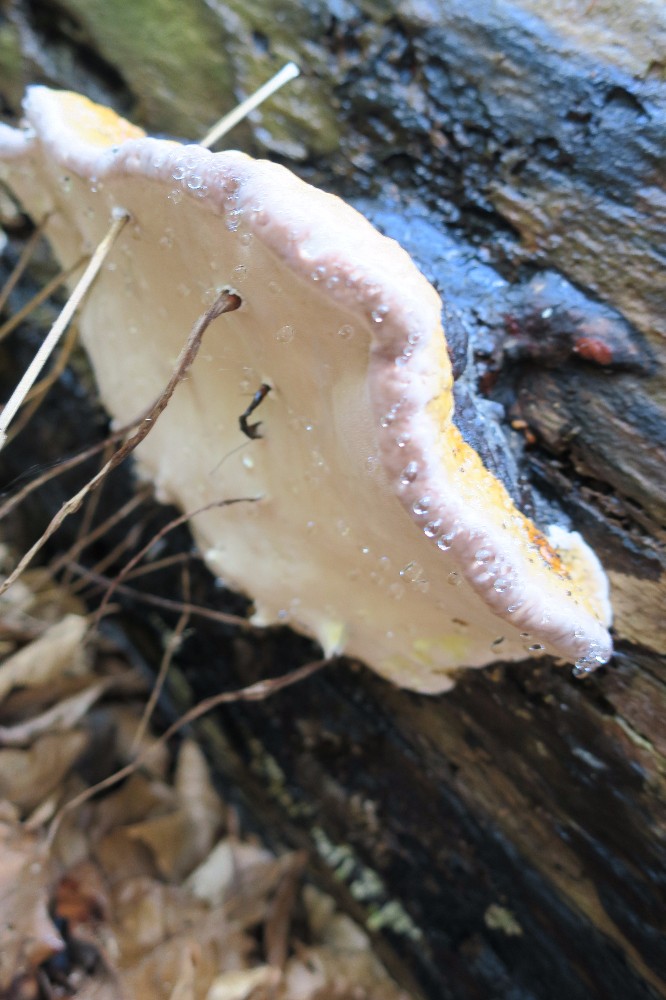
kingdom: Fungi
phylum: Basidiomycota
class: Agaricomycetes
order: Polyporales
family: Fomitopsidaceae
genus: Fomitopsis
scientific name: Fomitopsis pinicola
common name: randbæltet hovporesvamp
